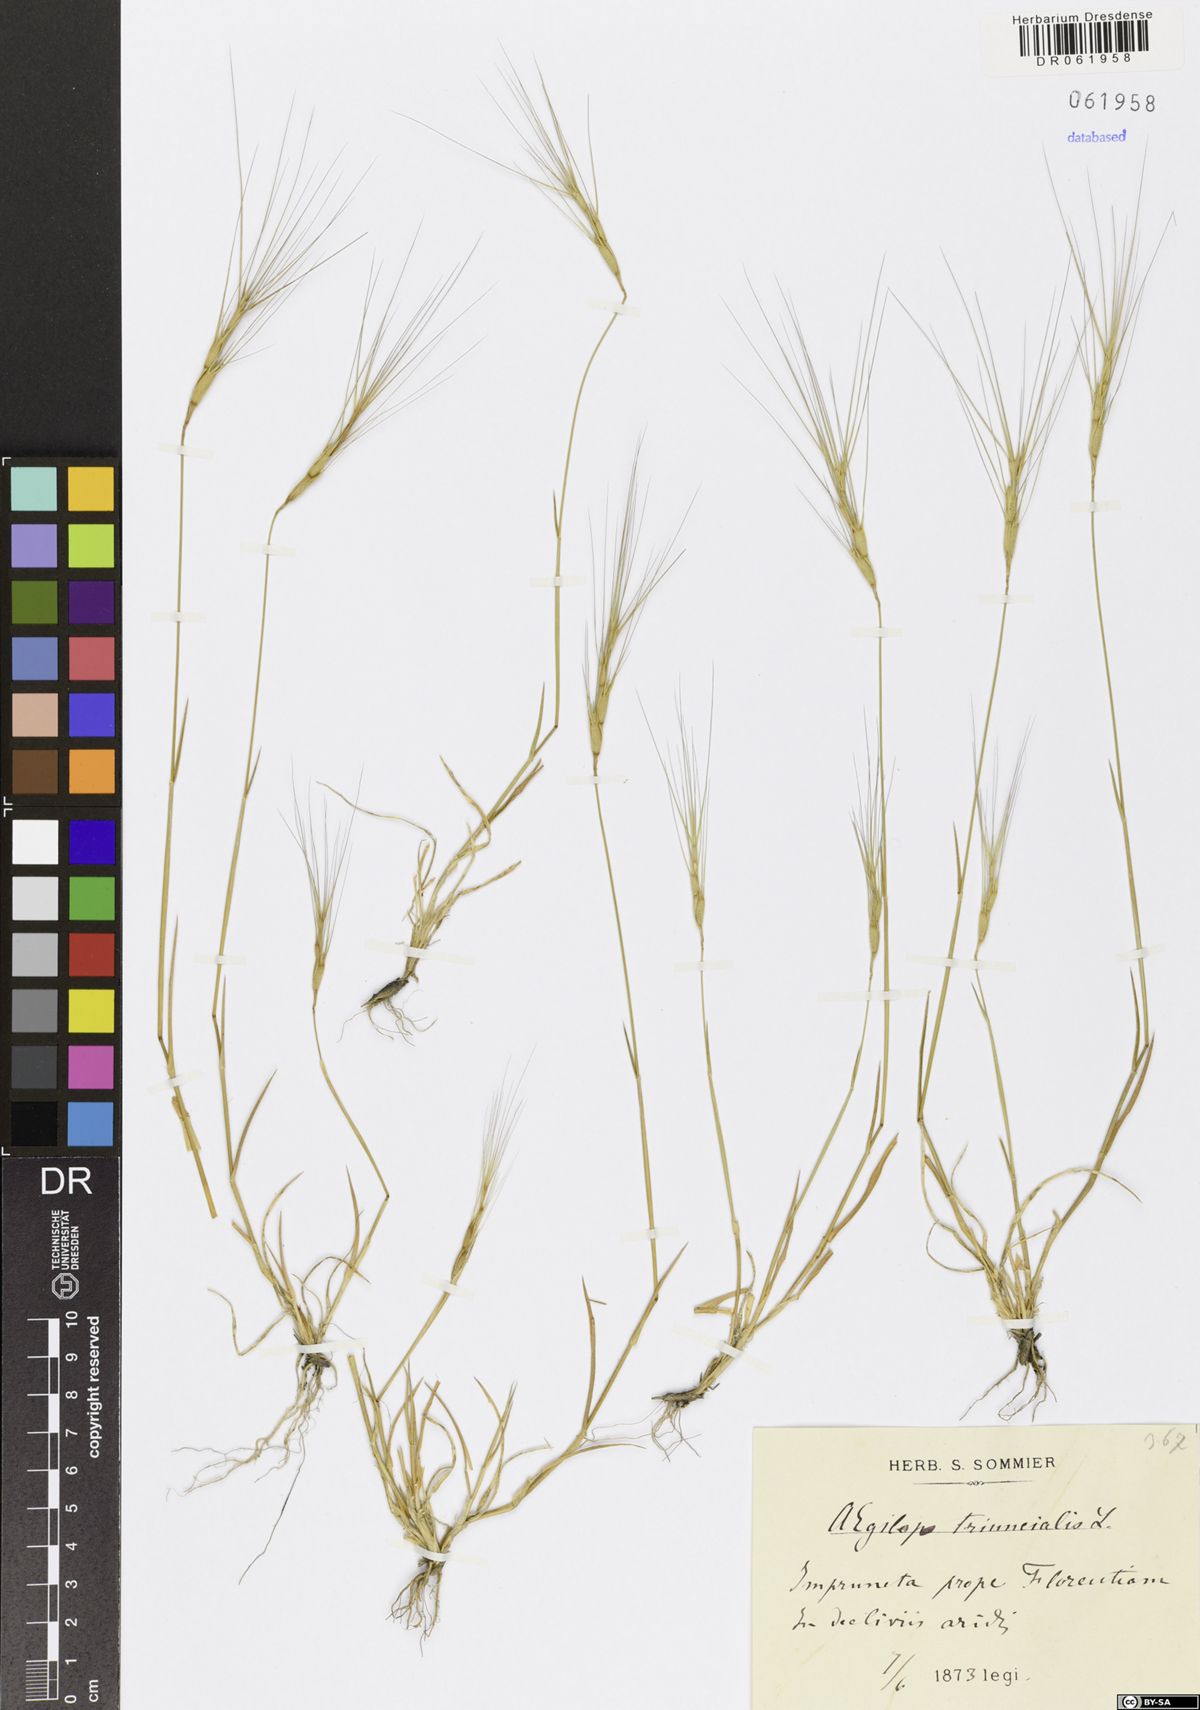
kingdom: Plantae
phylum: Tracheophyta
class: Liliopsida
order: Poales
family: Poaceae
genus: Aegilops
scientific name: Aegilops triuncialis
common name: Barb goat grass
